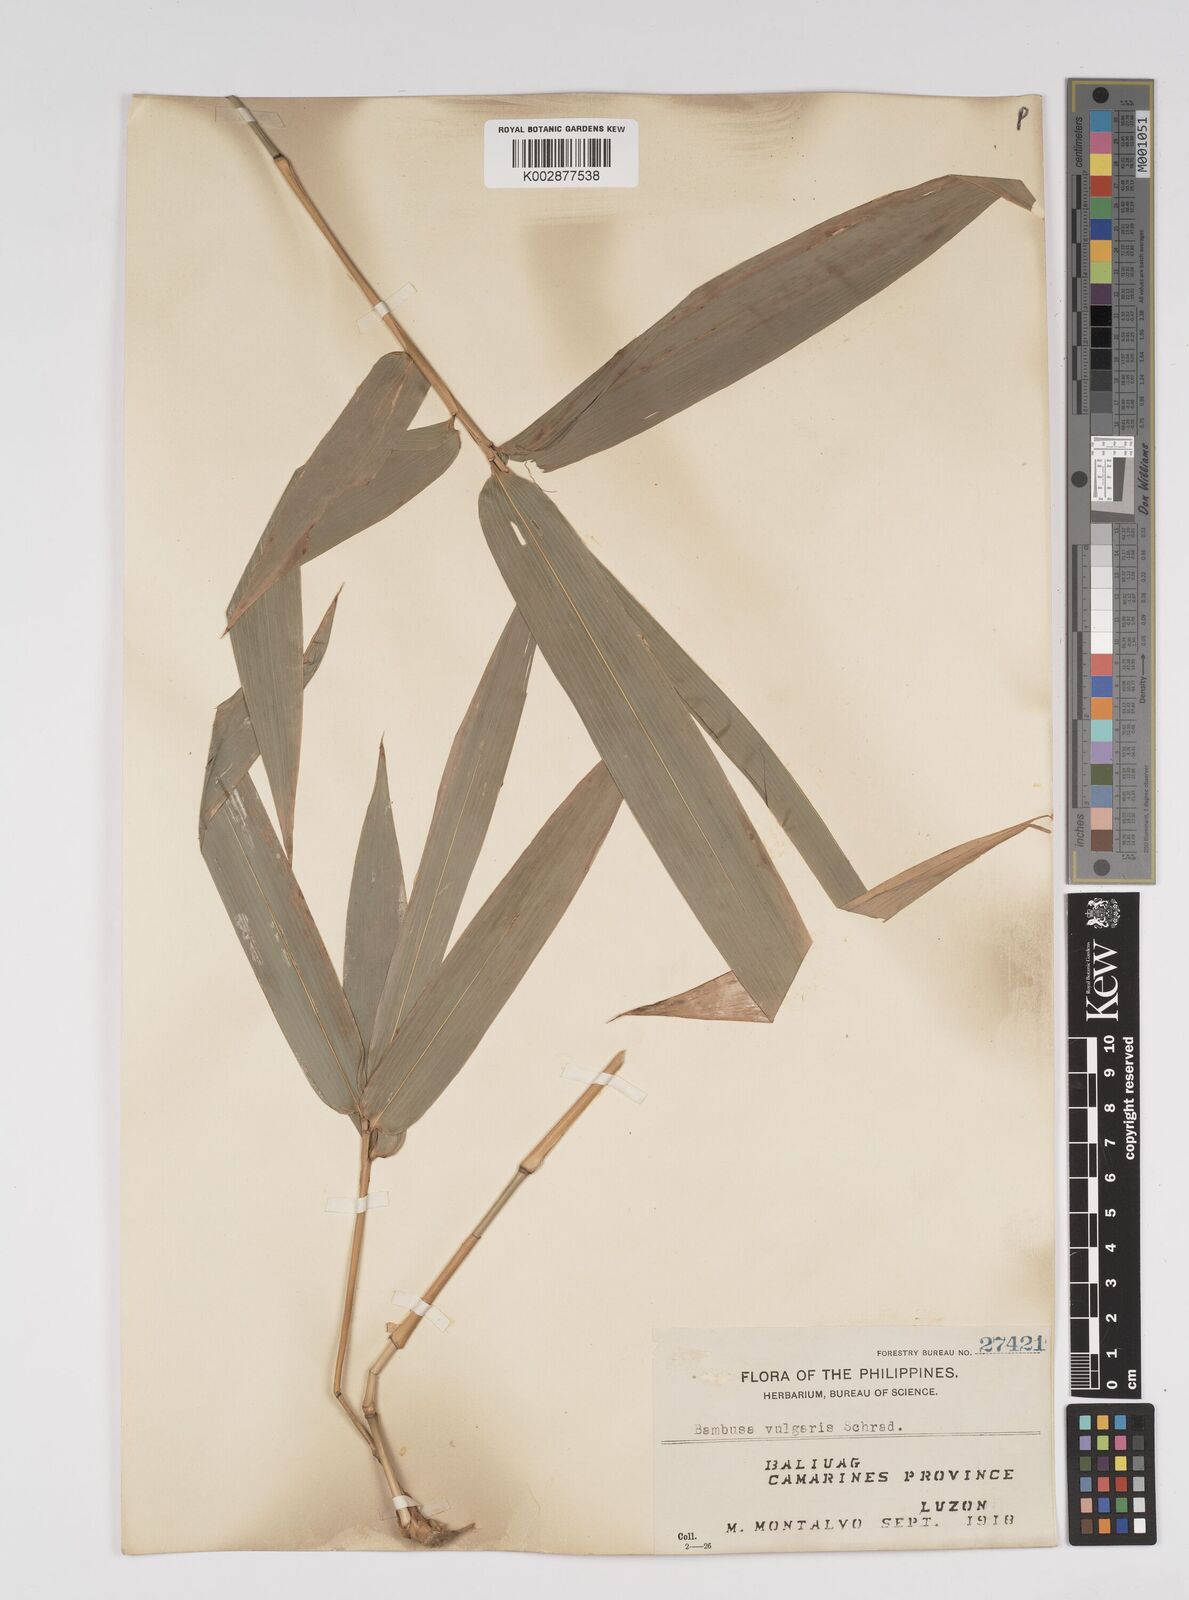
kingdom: Plantae
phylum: Tracheophyta
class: Liliopsida
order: Poales
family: Poaceae
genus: Bambusa
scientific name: Bambusa vulgaris
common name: Common bamboo
